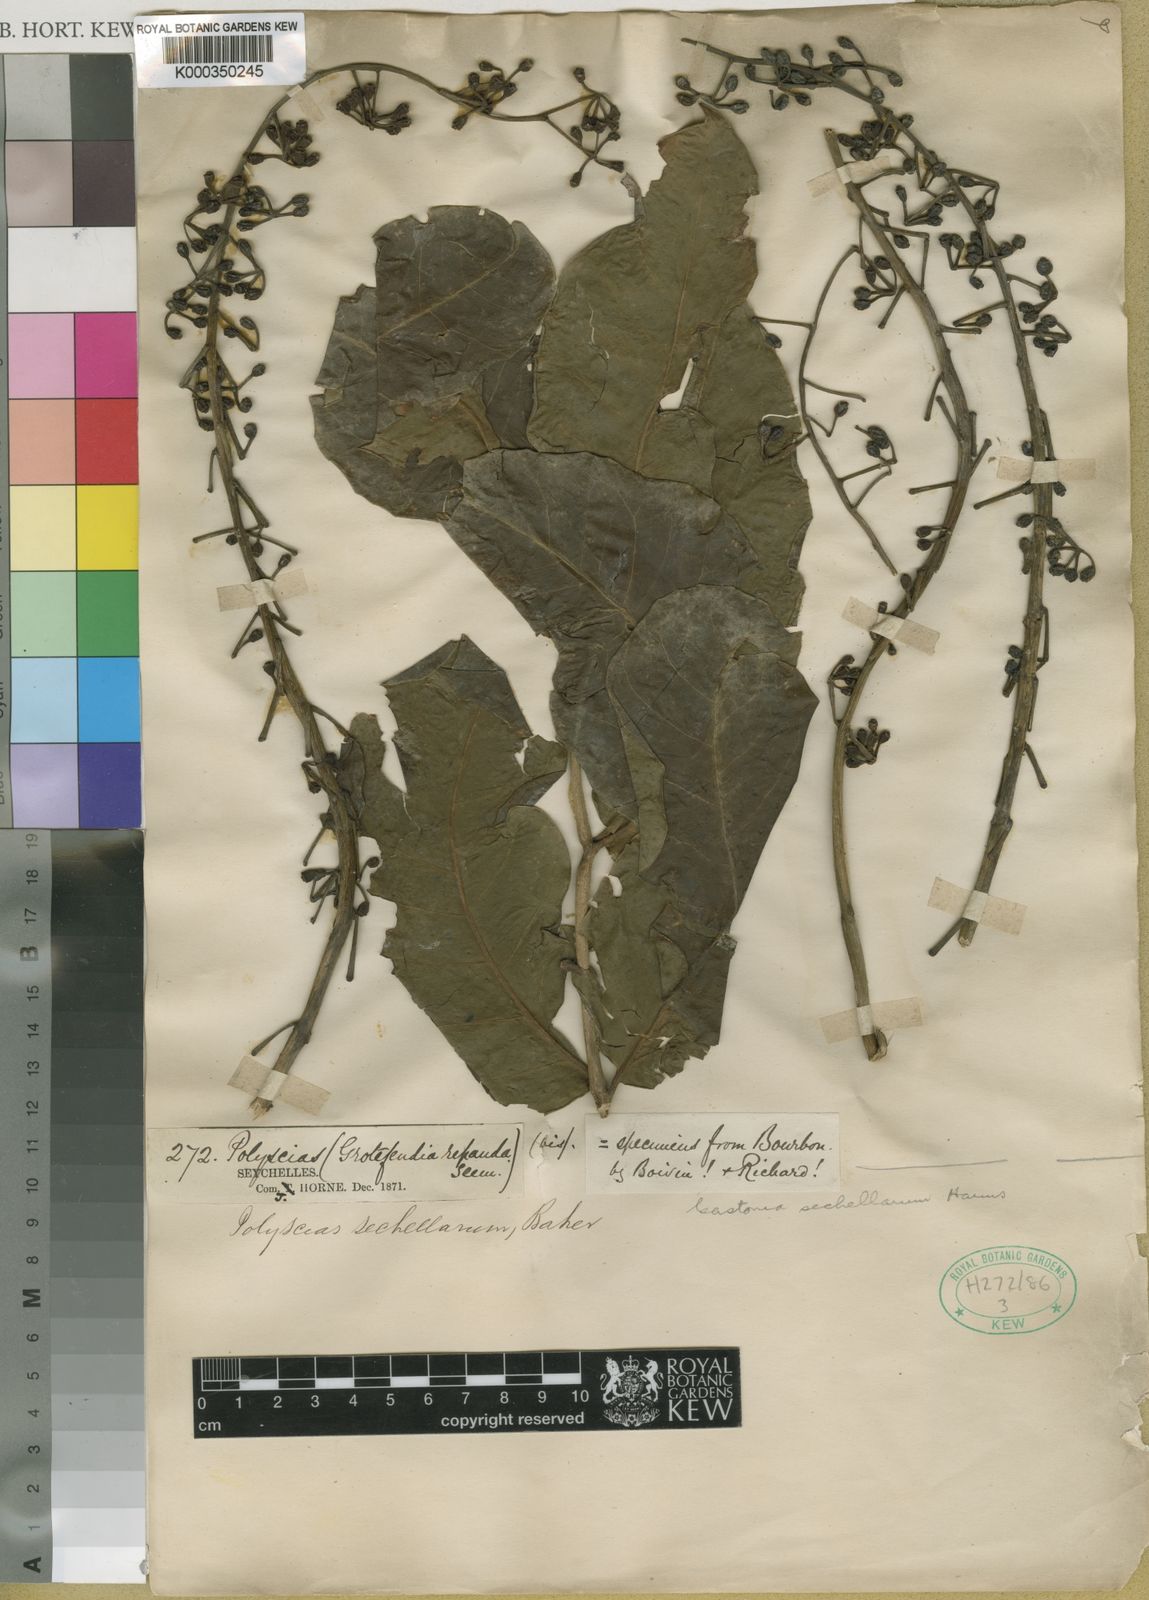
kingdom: Plantae
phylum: Tracheophyta
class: Magnoliopsida
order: Apiales
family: Araliaceae
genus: Polyscias
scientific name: Polyscias sechellarum
